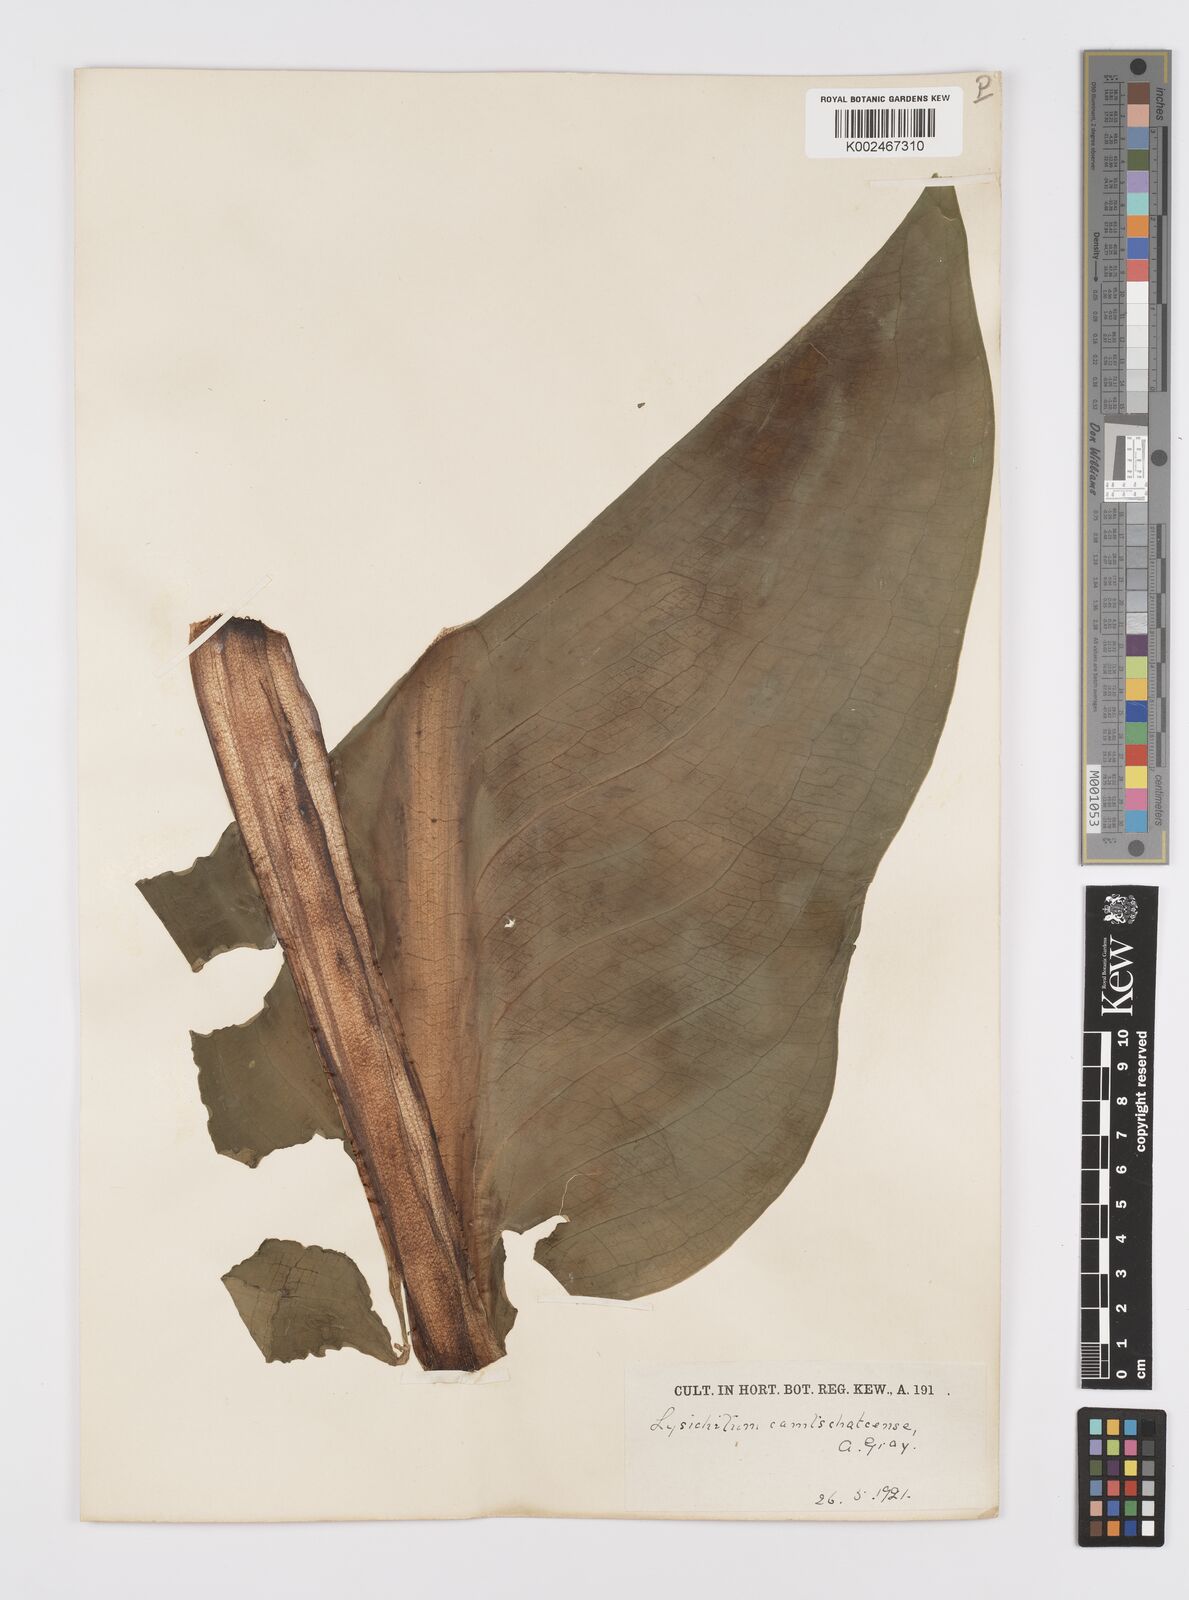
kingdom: Plantae
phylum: Tracheophyta
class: Liliopsida
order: Alismatales
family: Araceae
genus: Lysichiton
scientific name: Lysichiton camtschatcensis
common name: Asian skunk-cabbage
